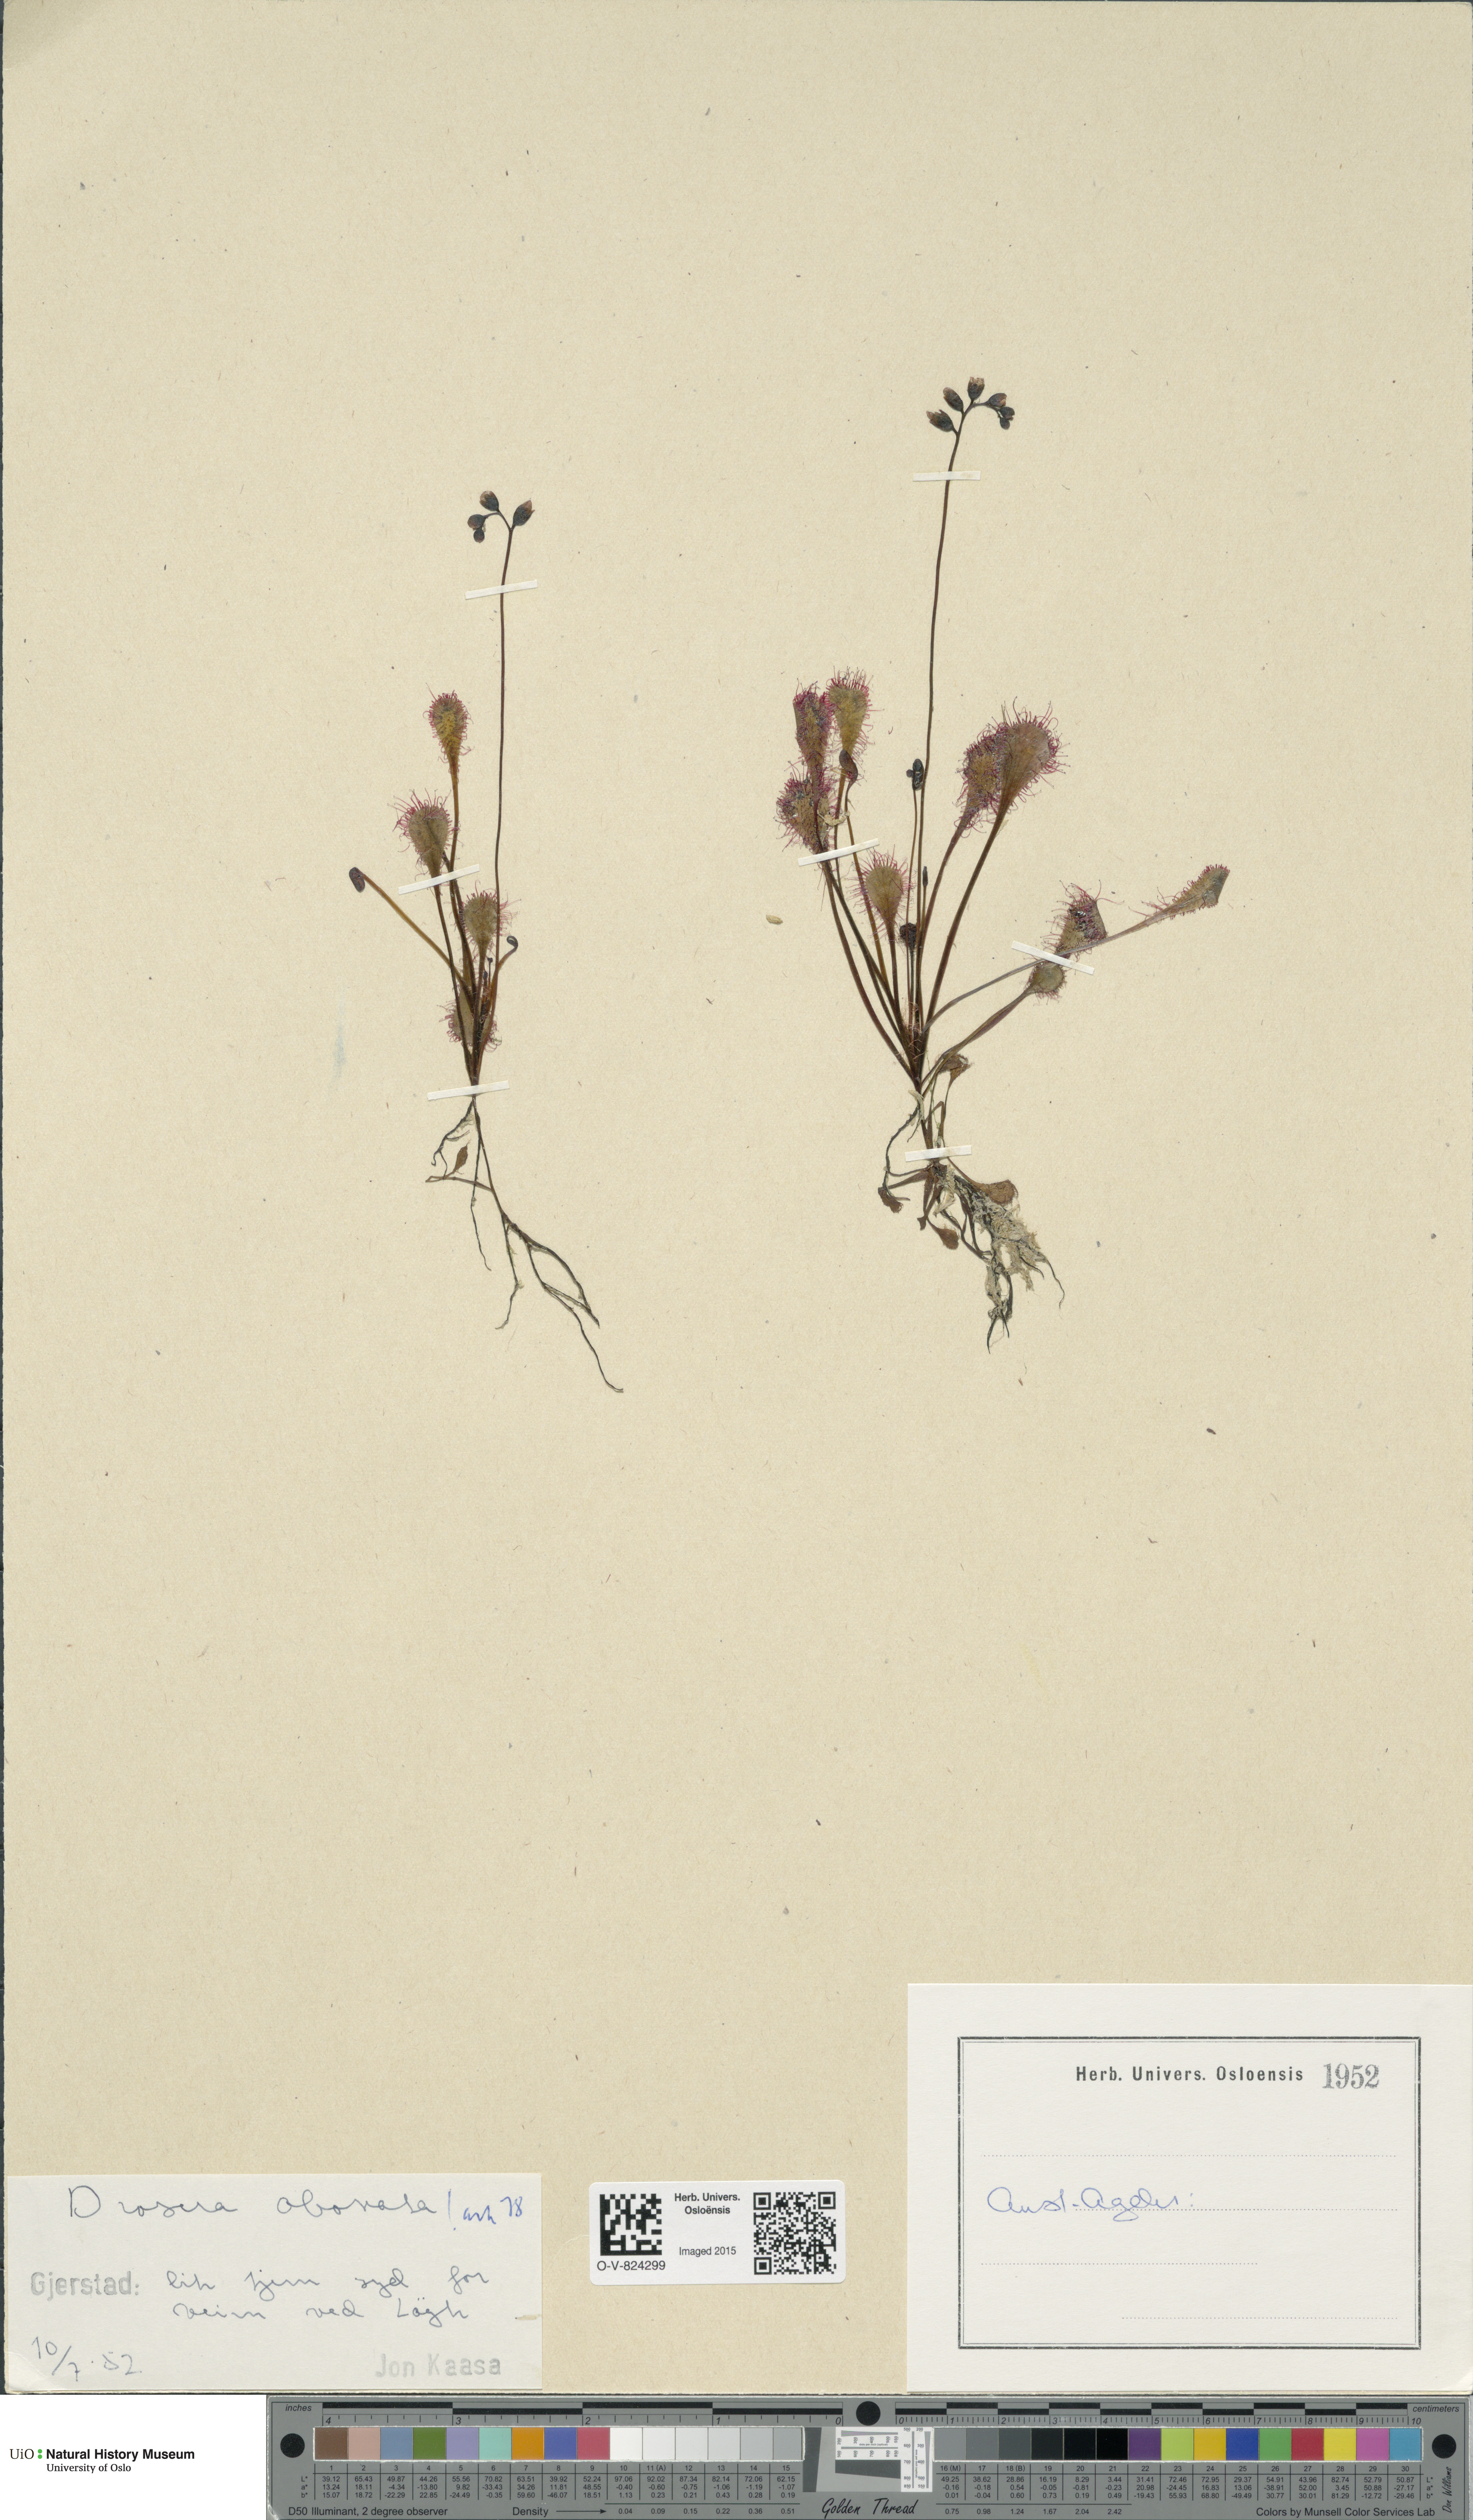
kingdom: Plantae
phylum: Tracheophyta
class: Magnoliopsida
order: Caryophyllales
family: Droseraceae
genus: Drosera
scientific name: Drosera
